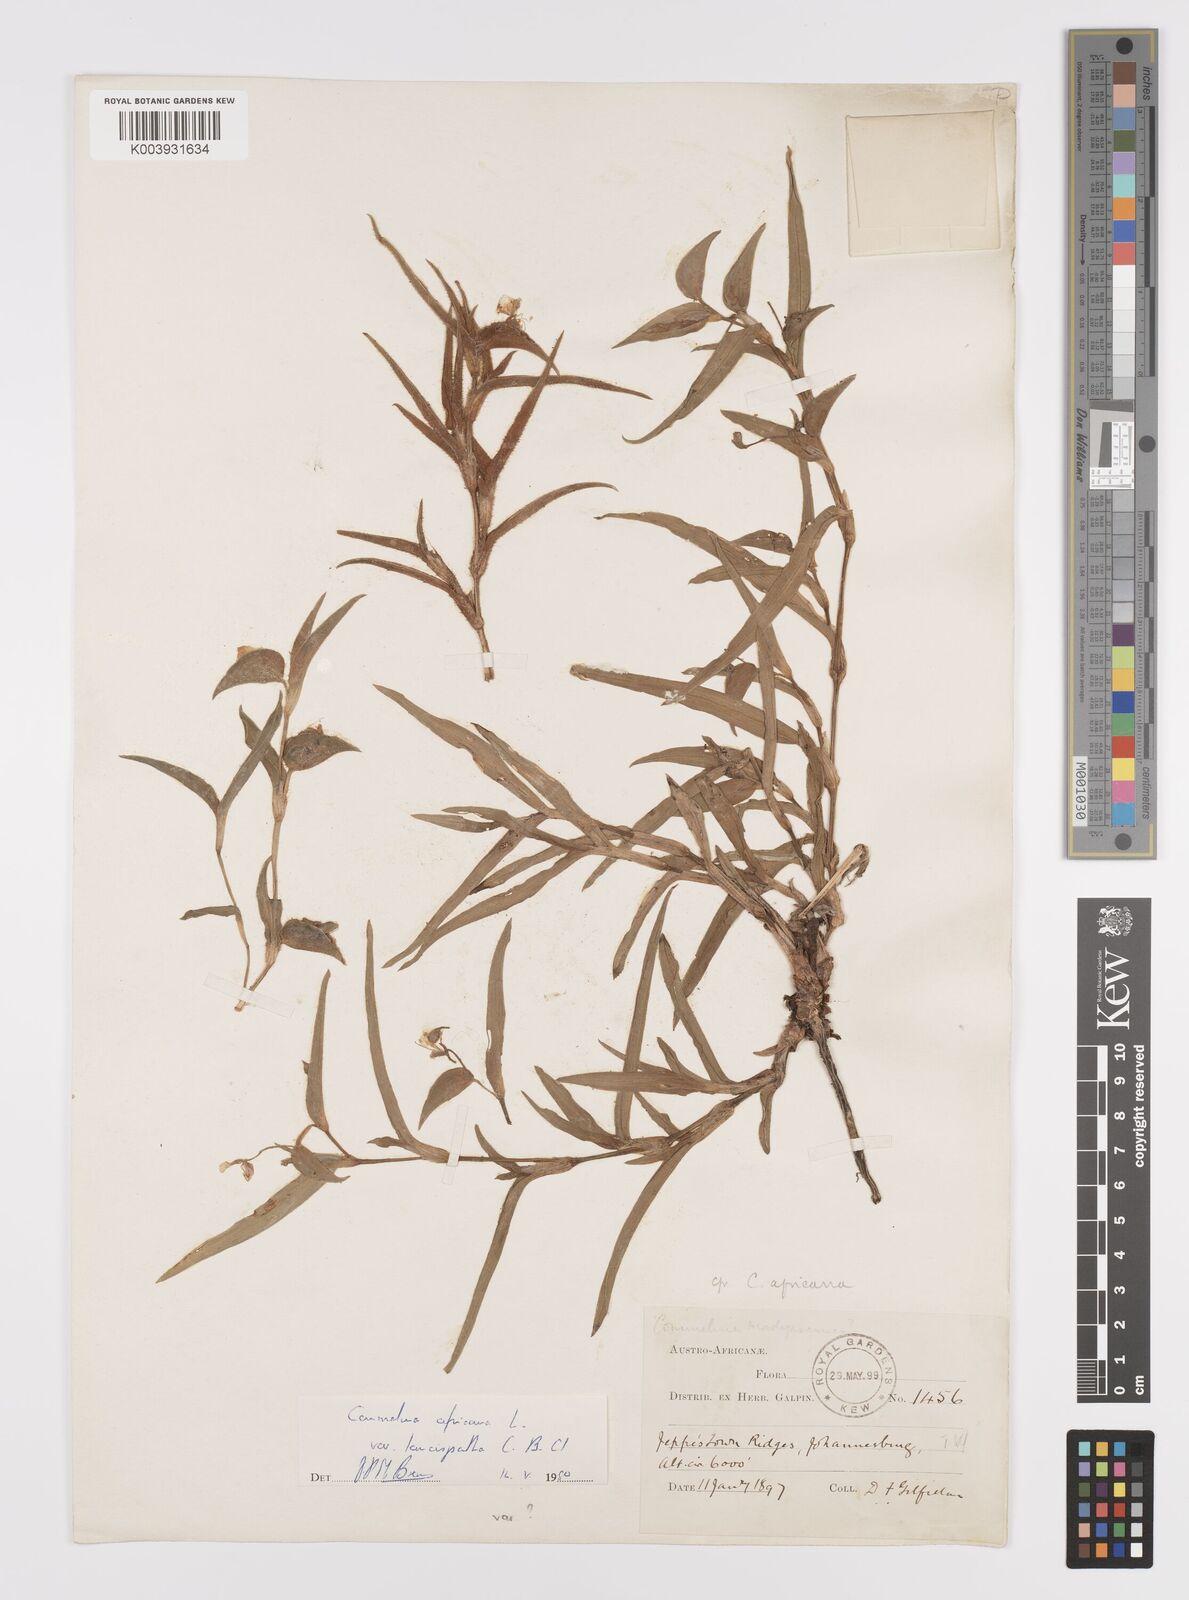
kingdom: Plantae
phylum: Tracheophyta
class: Liliopsida
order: Commelinales
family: Commelinaceae
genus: Commelina
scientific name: Commelina africana
